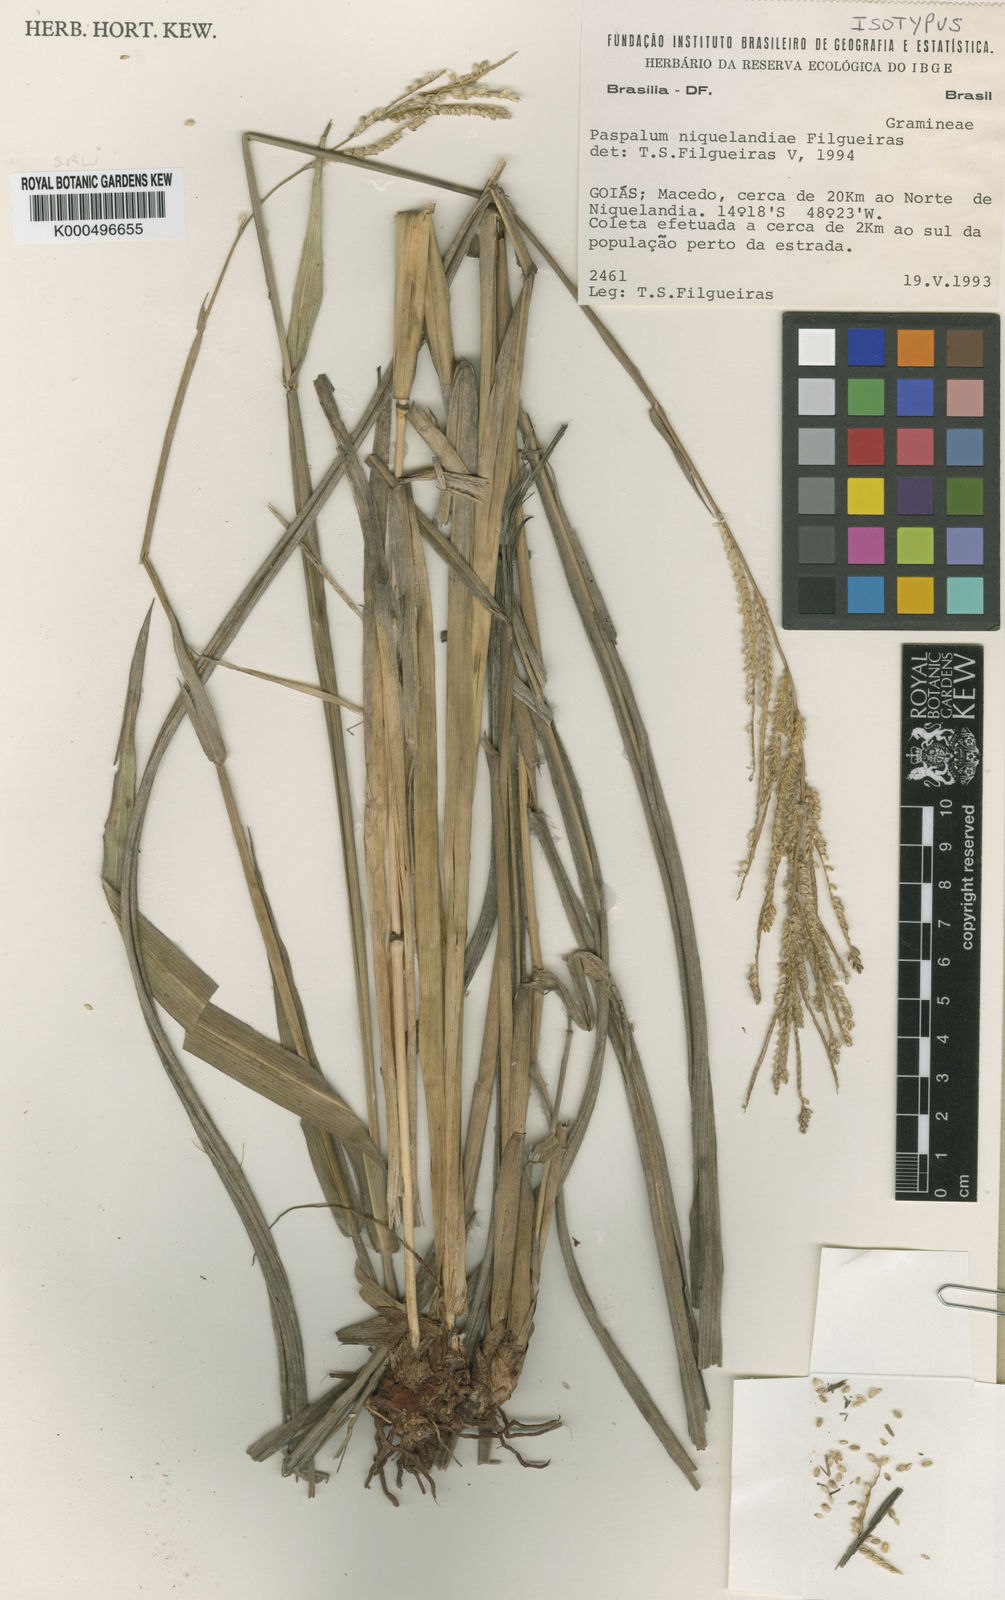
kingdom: Plantae
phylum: Tracheophyta
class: Liliopsida
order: Poales
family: Poaceae
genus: Paspalum
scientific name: Paspalum niquelandiae
